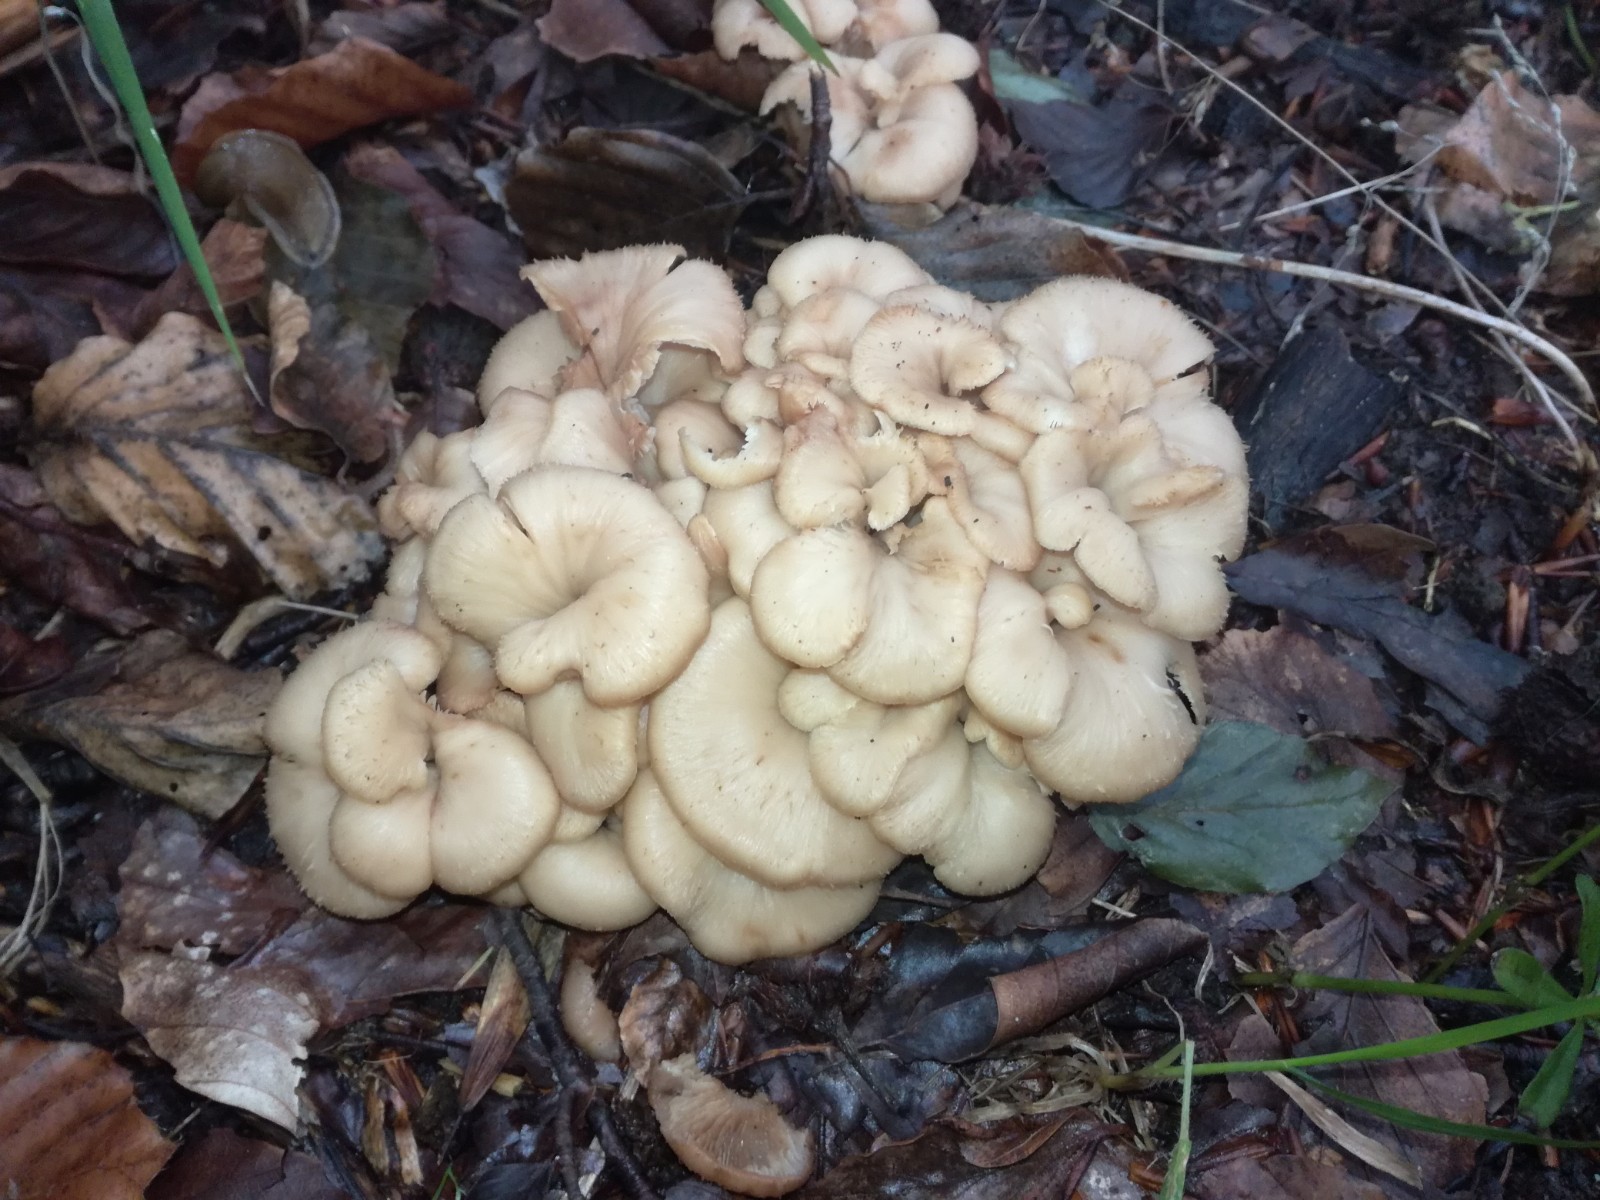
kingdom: Fungi
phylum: Basidiomycota
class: Agaricomycetes
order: Russulales
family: Auriscalpiaceae
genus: Lentinellus
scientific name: Lentinellus cochleatus
